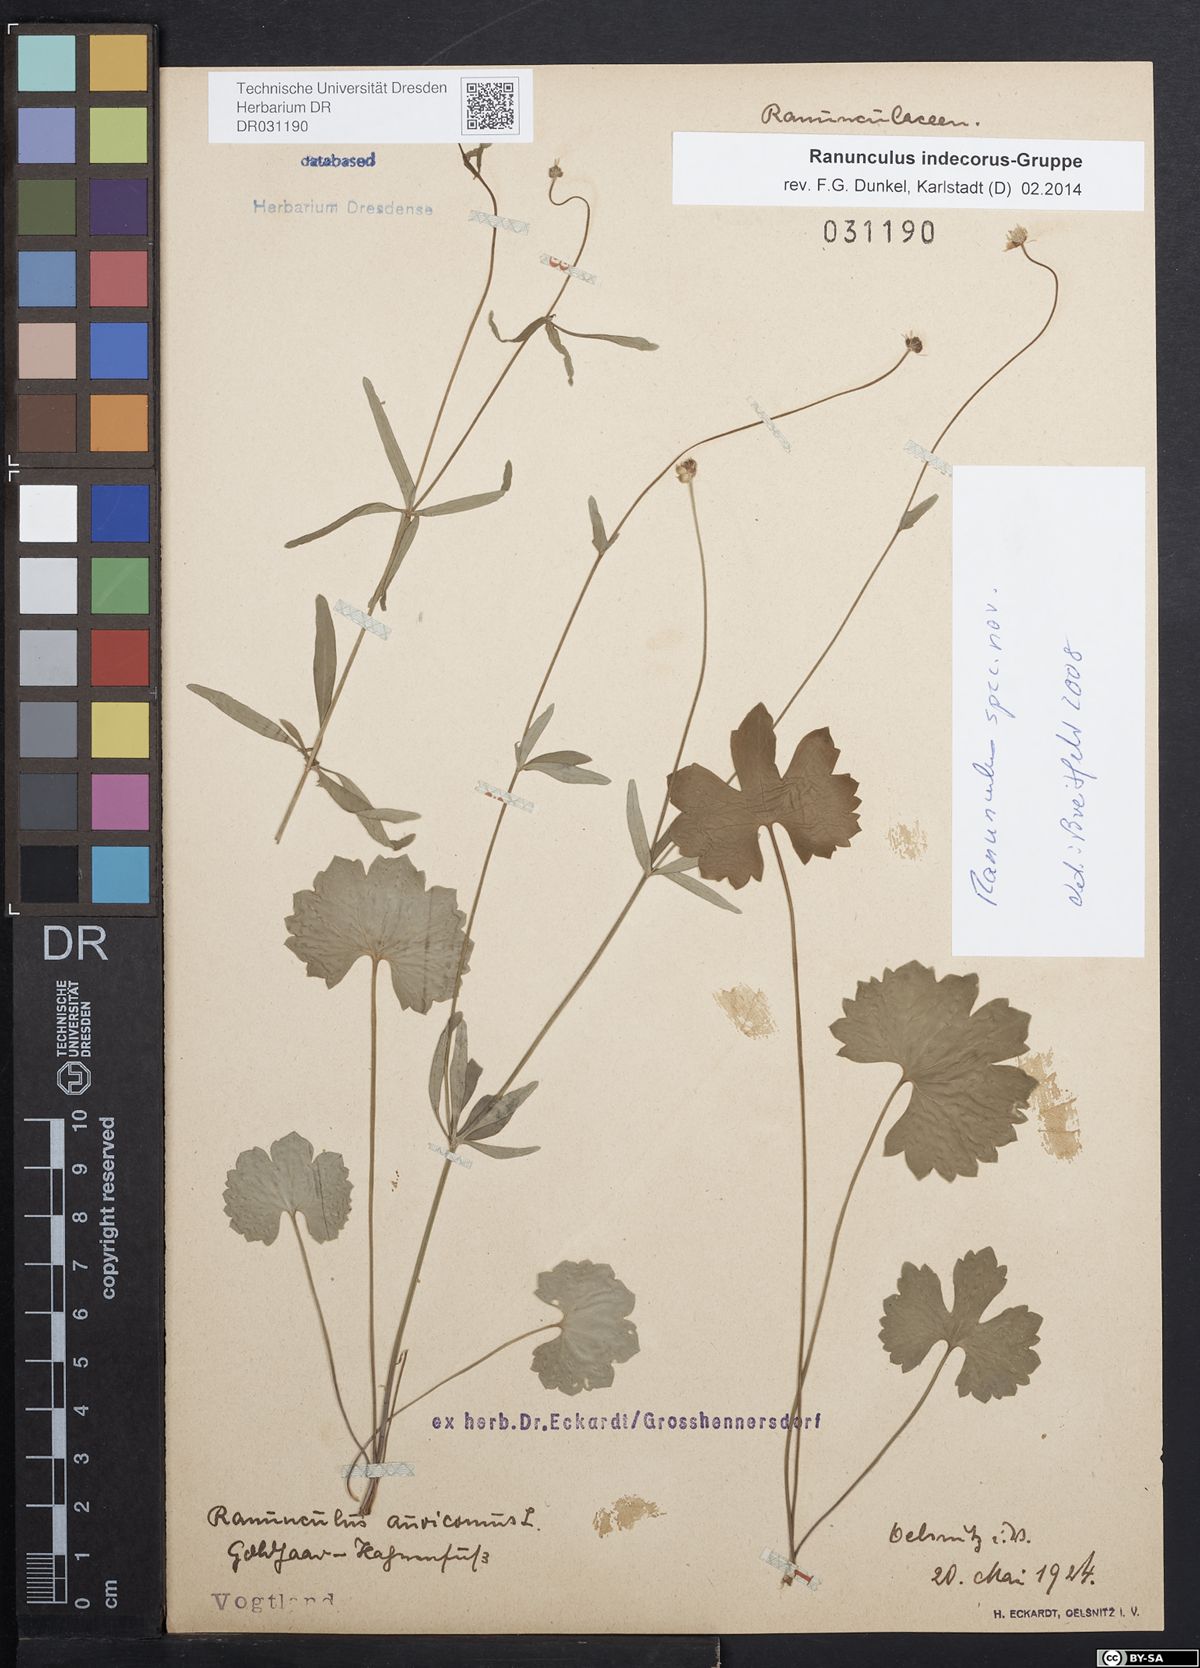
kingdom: Plantae
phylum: Tracheophyta
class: Magnoliopsida
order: Ranunculales
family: Ranunculaceae
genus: Ranunculus
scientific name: Ranunculus indecorus
